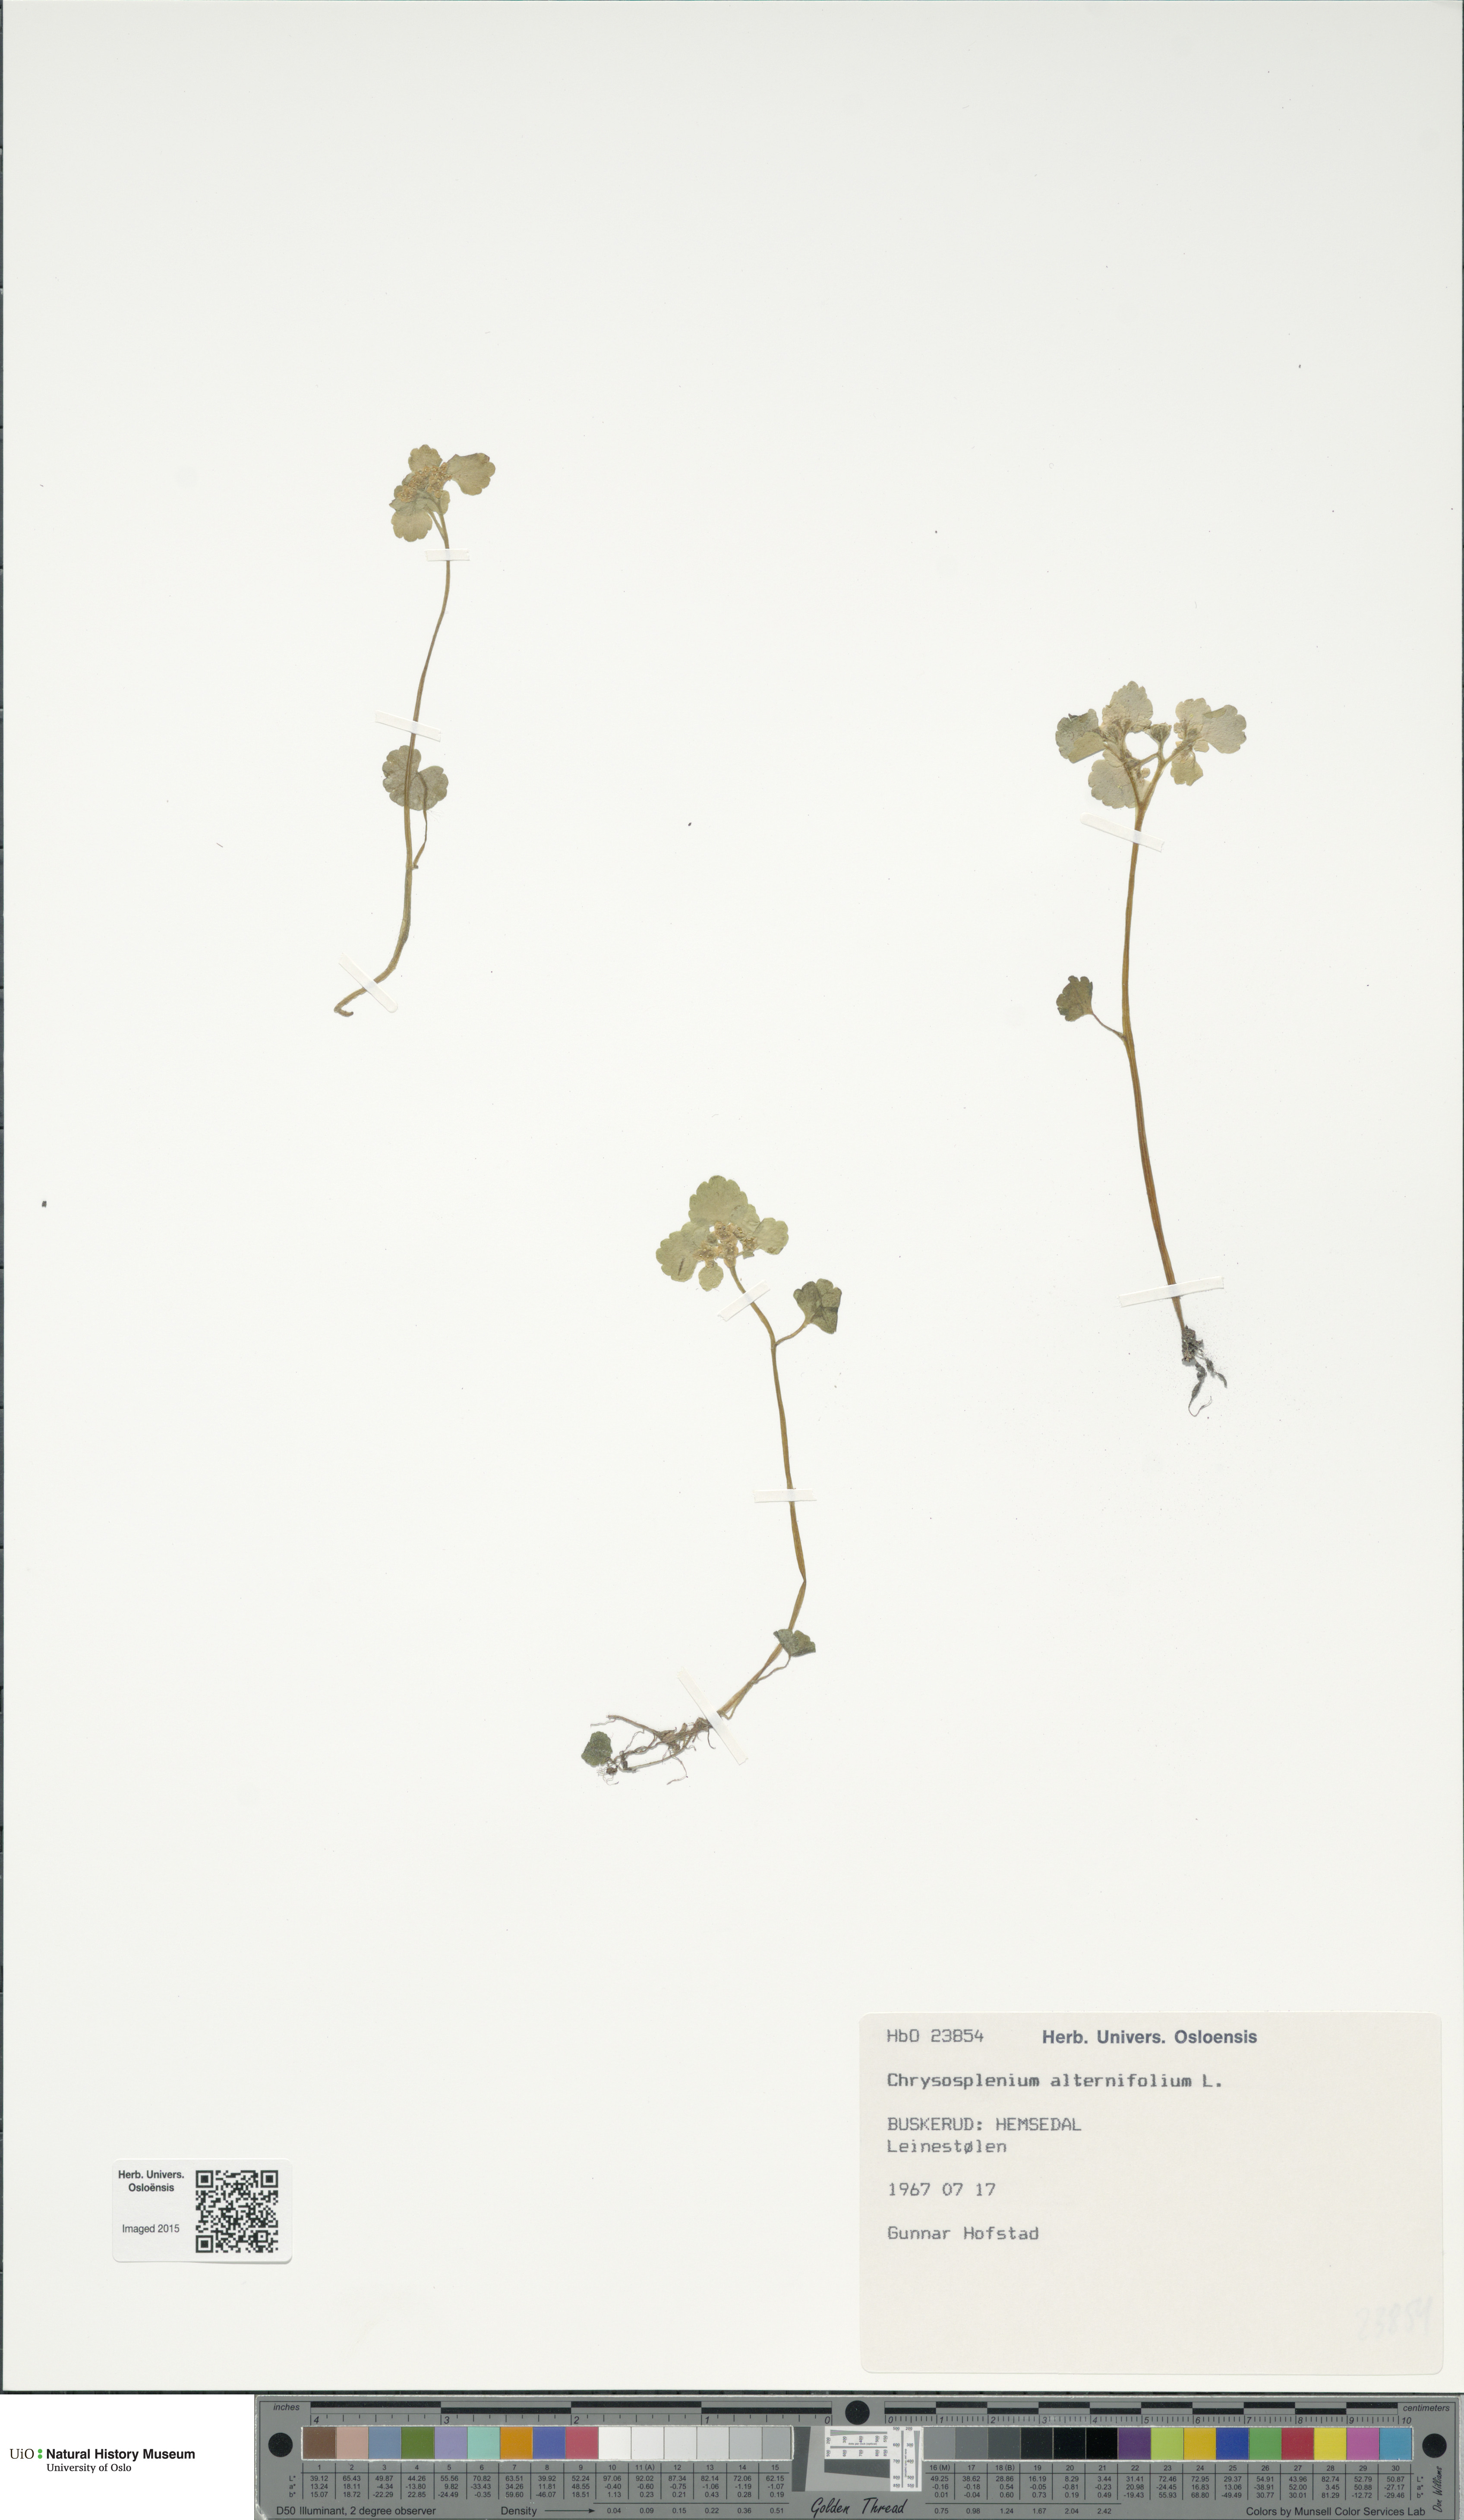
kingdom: Plantae
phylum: Tracheophyta
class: Magnoliopsida
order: Saxifragales
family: Saxifragaceae
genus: Chrysosplenium
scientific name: Chrysosplenium alternifolium
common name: Alternate-leaved golden-saxifrage
